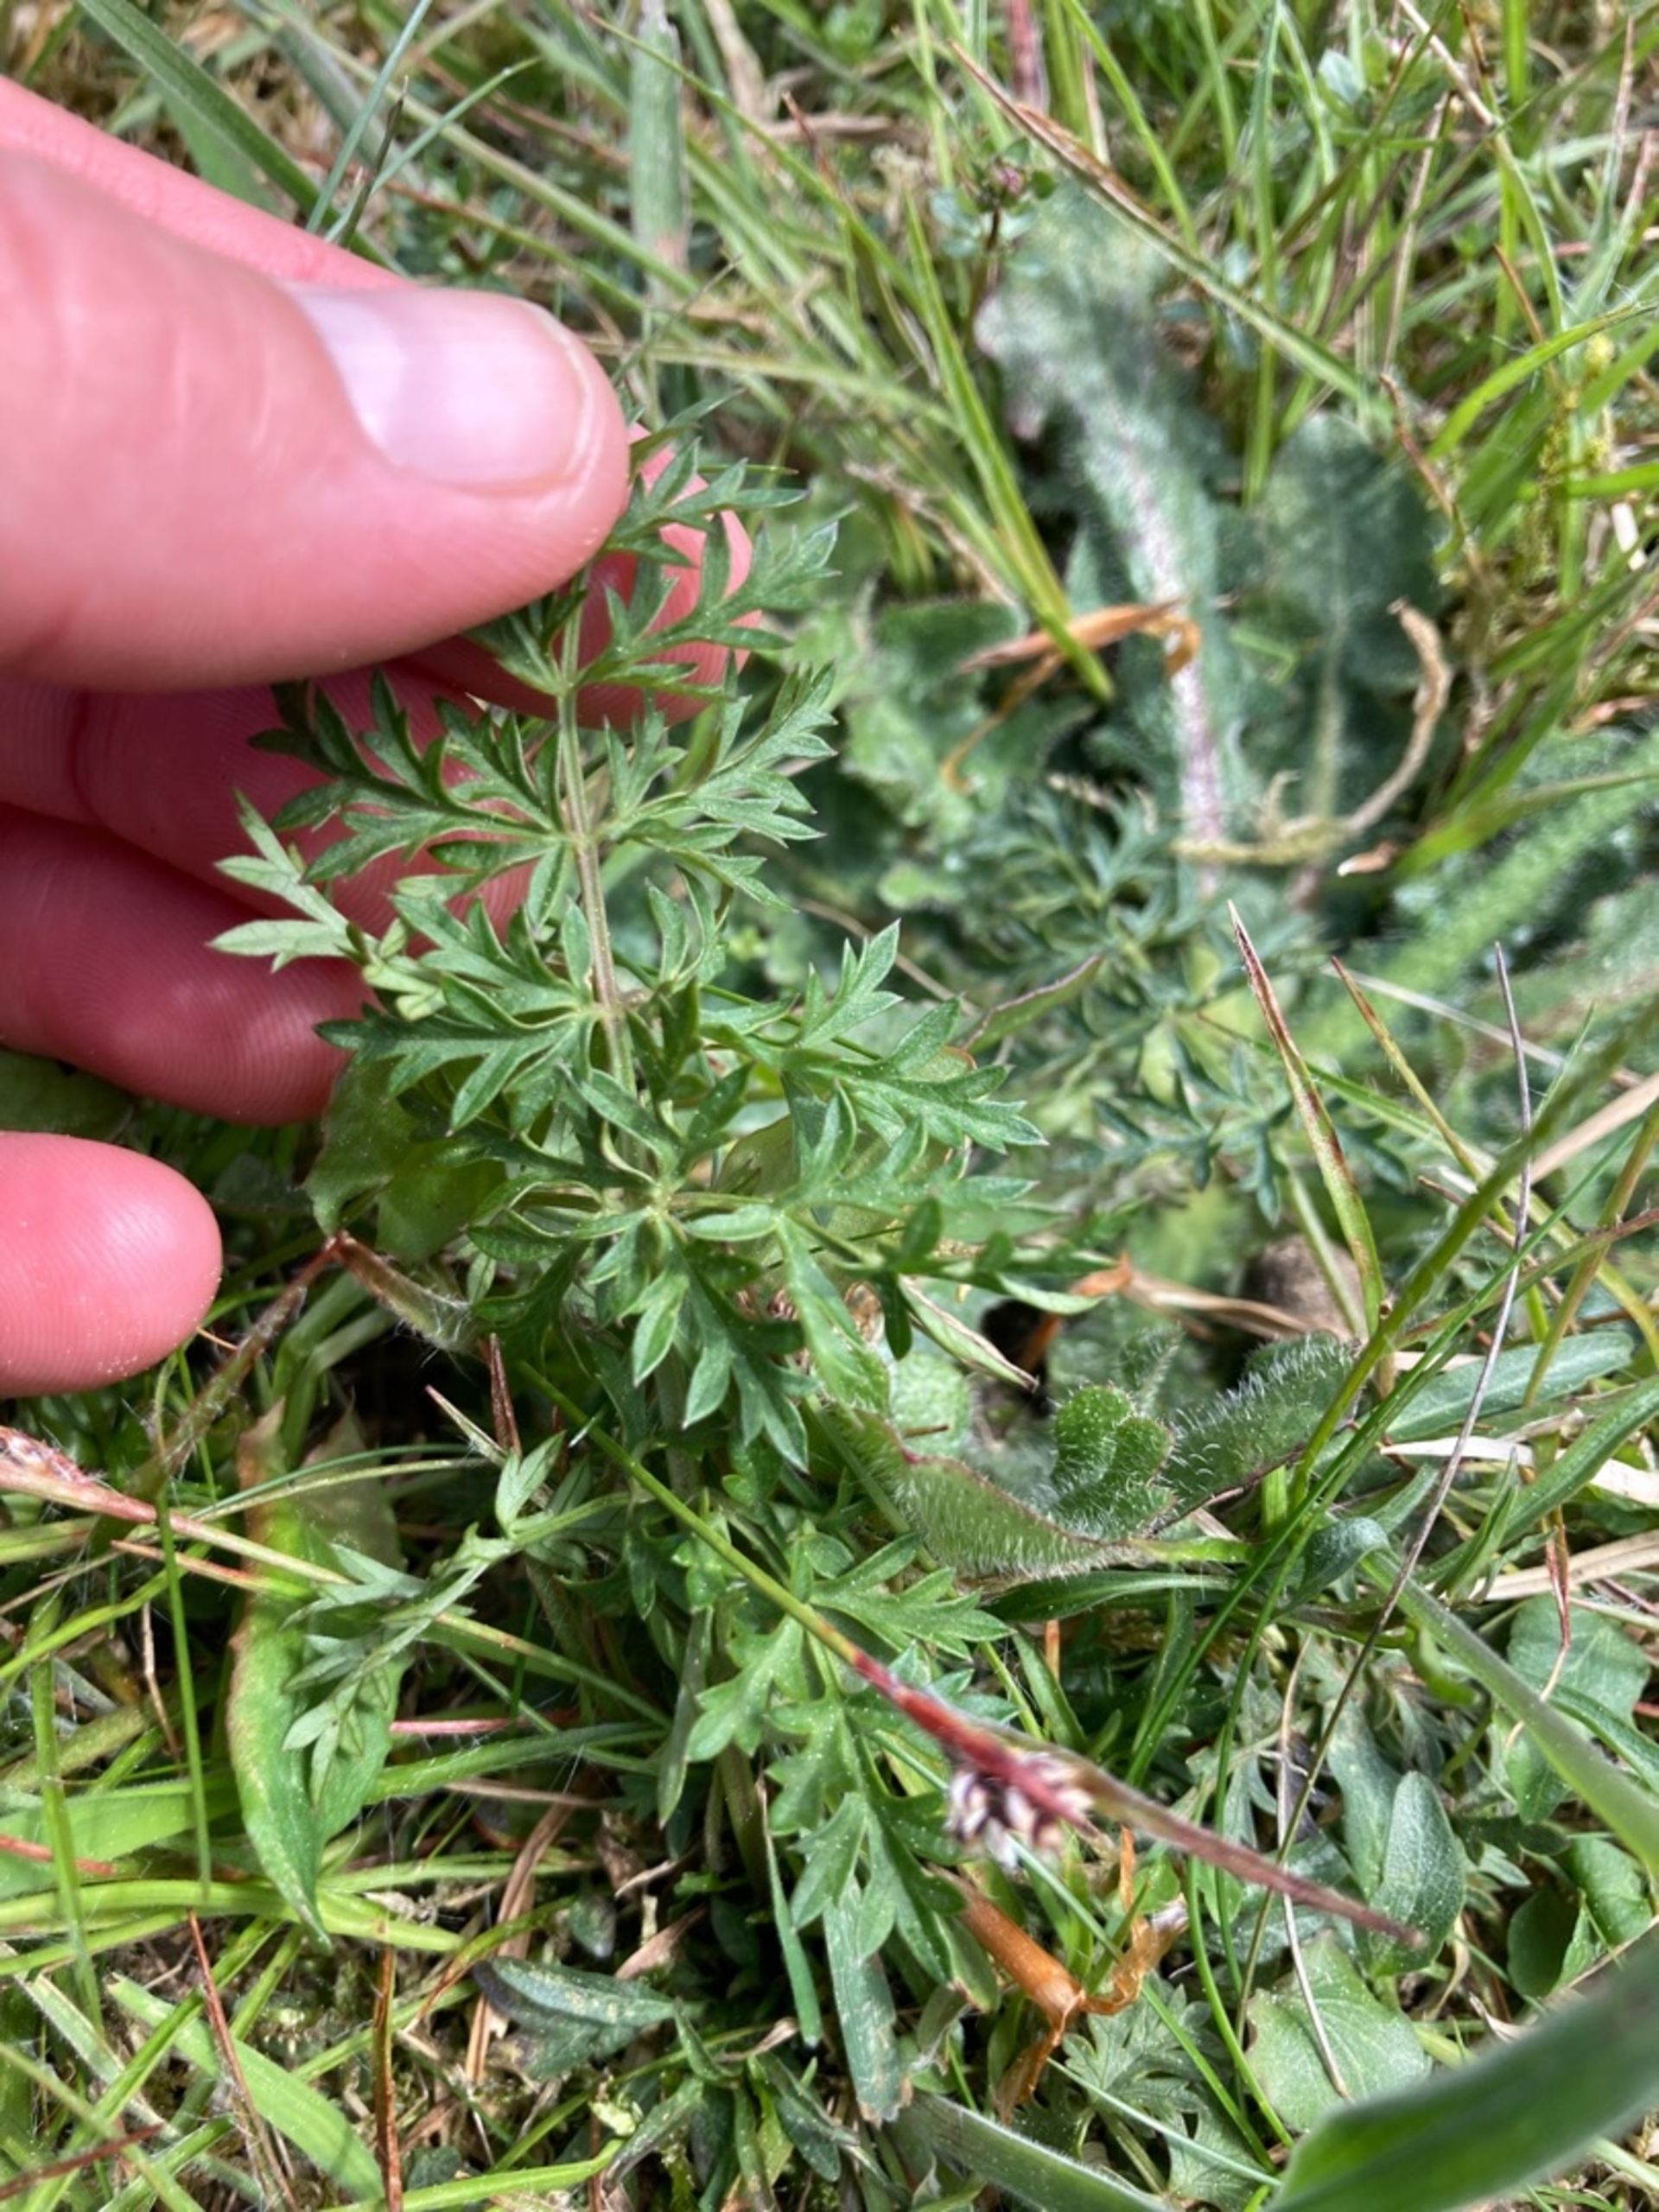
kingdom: Plantae
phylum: Tracheophyta
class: Magnoliopsida
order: Apiales
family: Apiaceae
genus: Pimpinella
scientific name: Pimpinella saxifraga
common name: Almindelig pimpinelle (underart)
